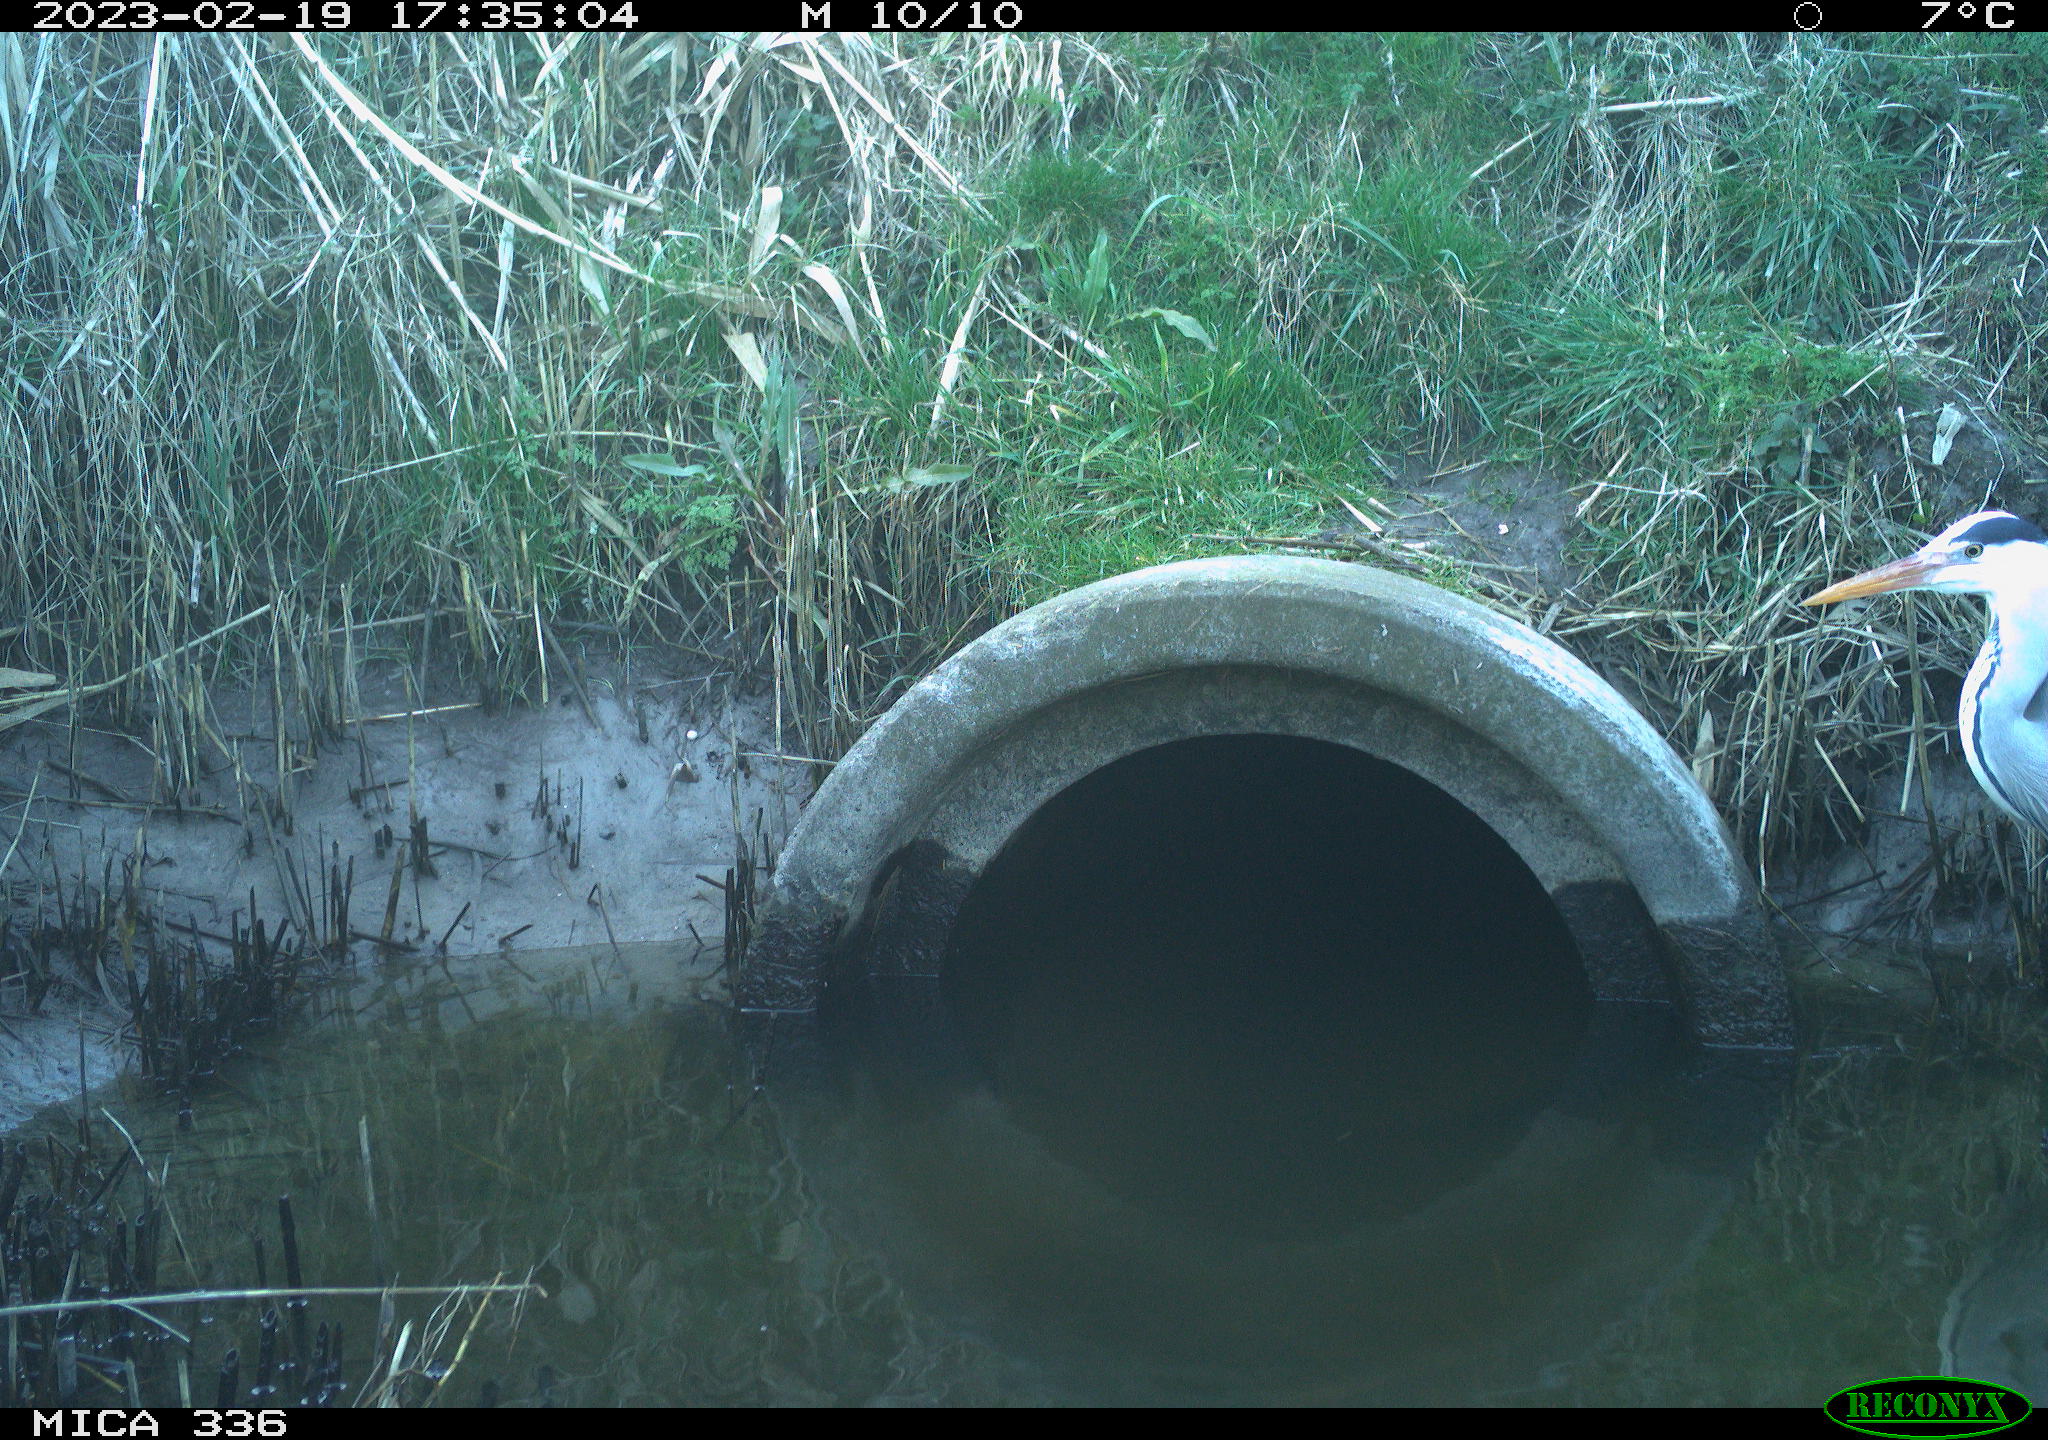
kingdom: Animalia
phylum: Chordata
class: Aves
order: Pelecaniformes
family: Ardeidae
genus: Ardea
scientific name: Ardea cinerea
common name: Grey heron
